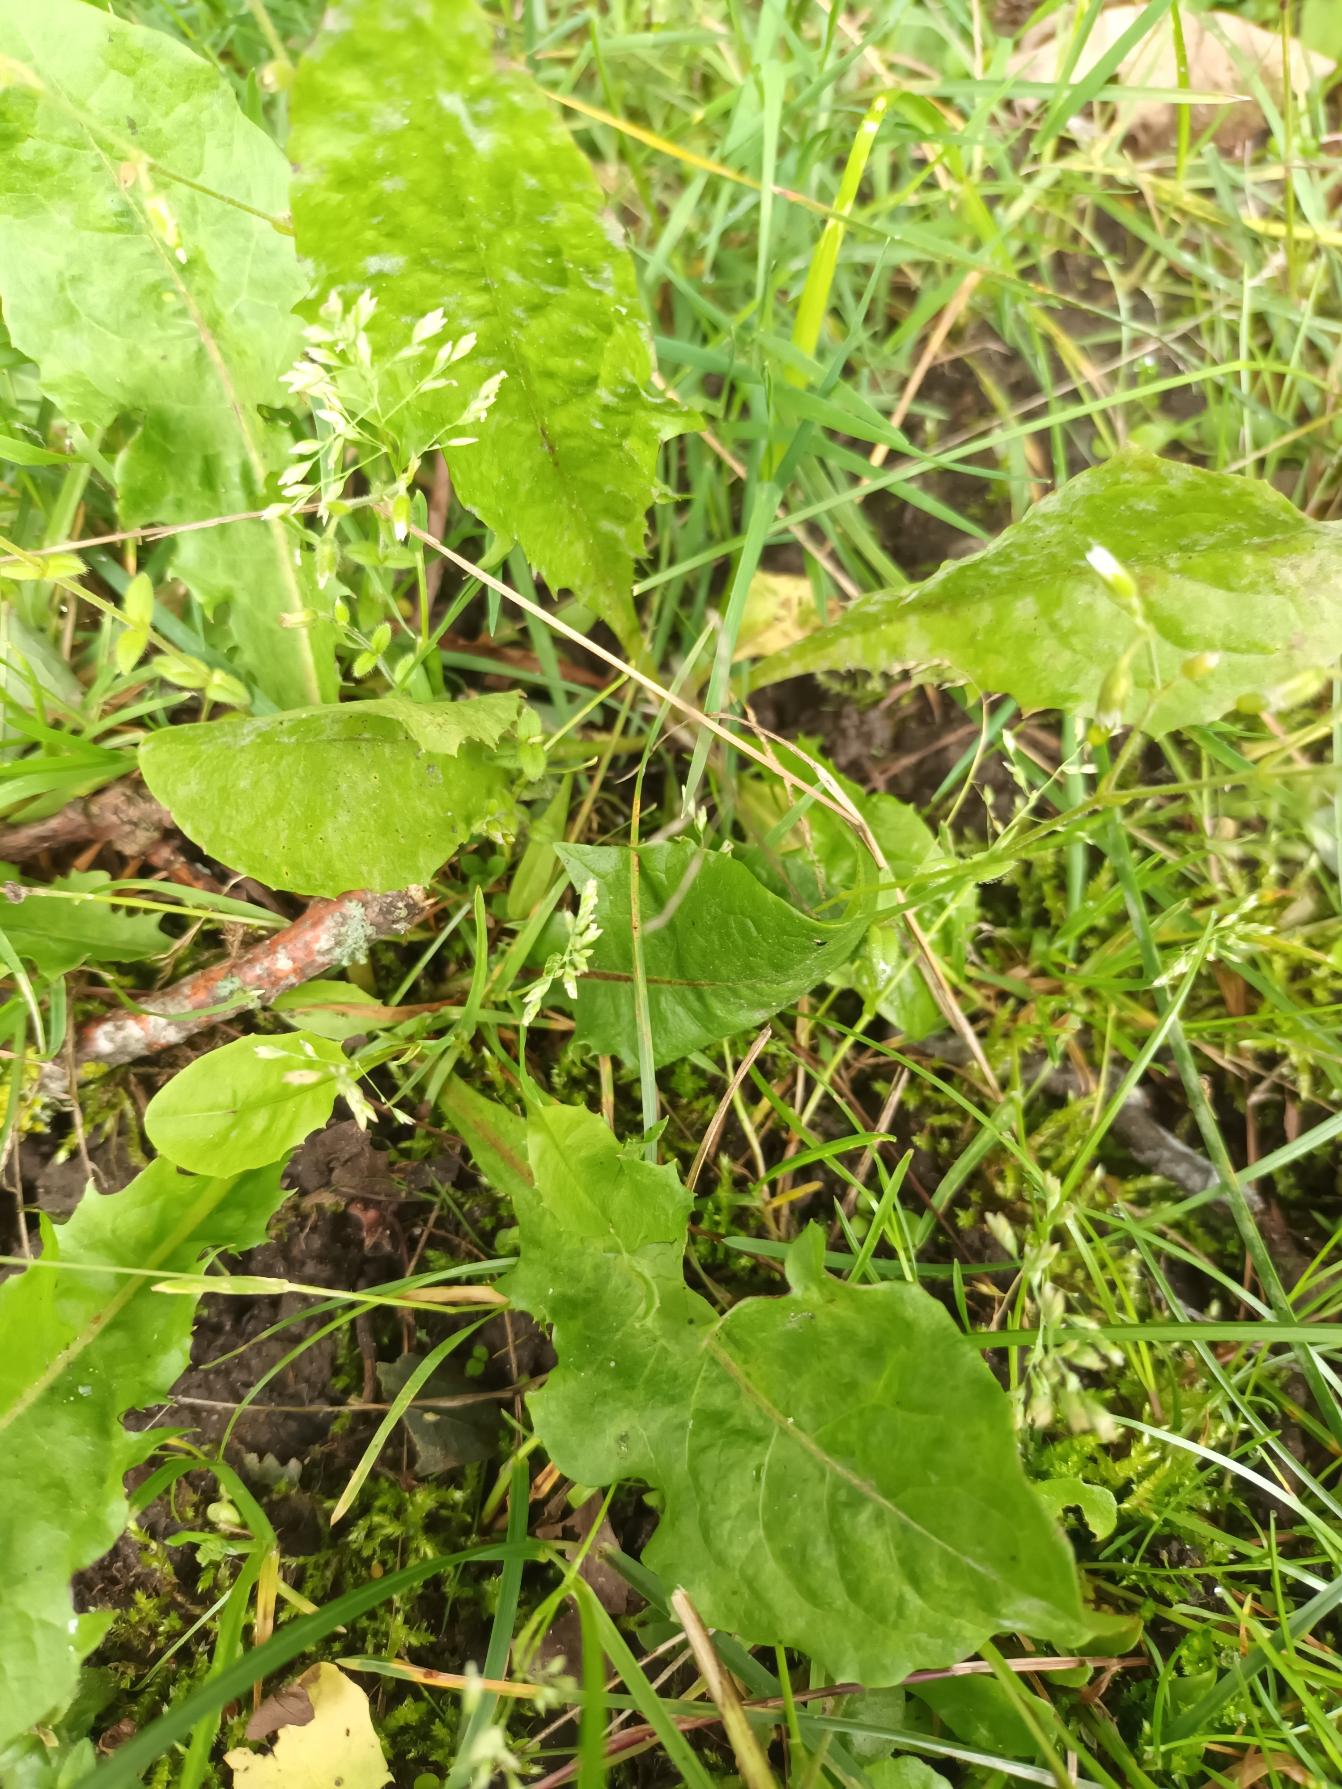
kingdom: Plantae
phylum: Tracheophyta
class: Liliopsida
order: Poales
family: Poaceae
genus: Poa
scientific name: Poa annua
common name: Enårig rapgræs
